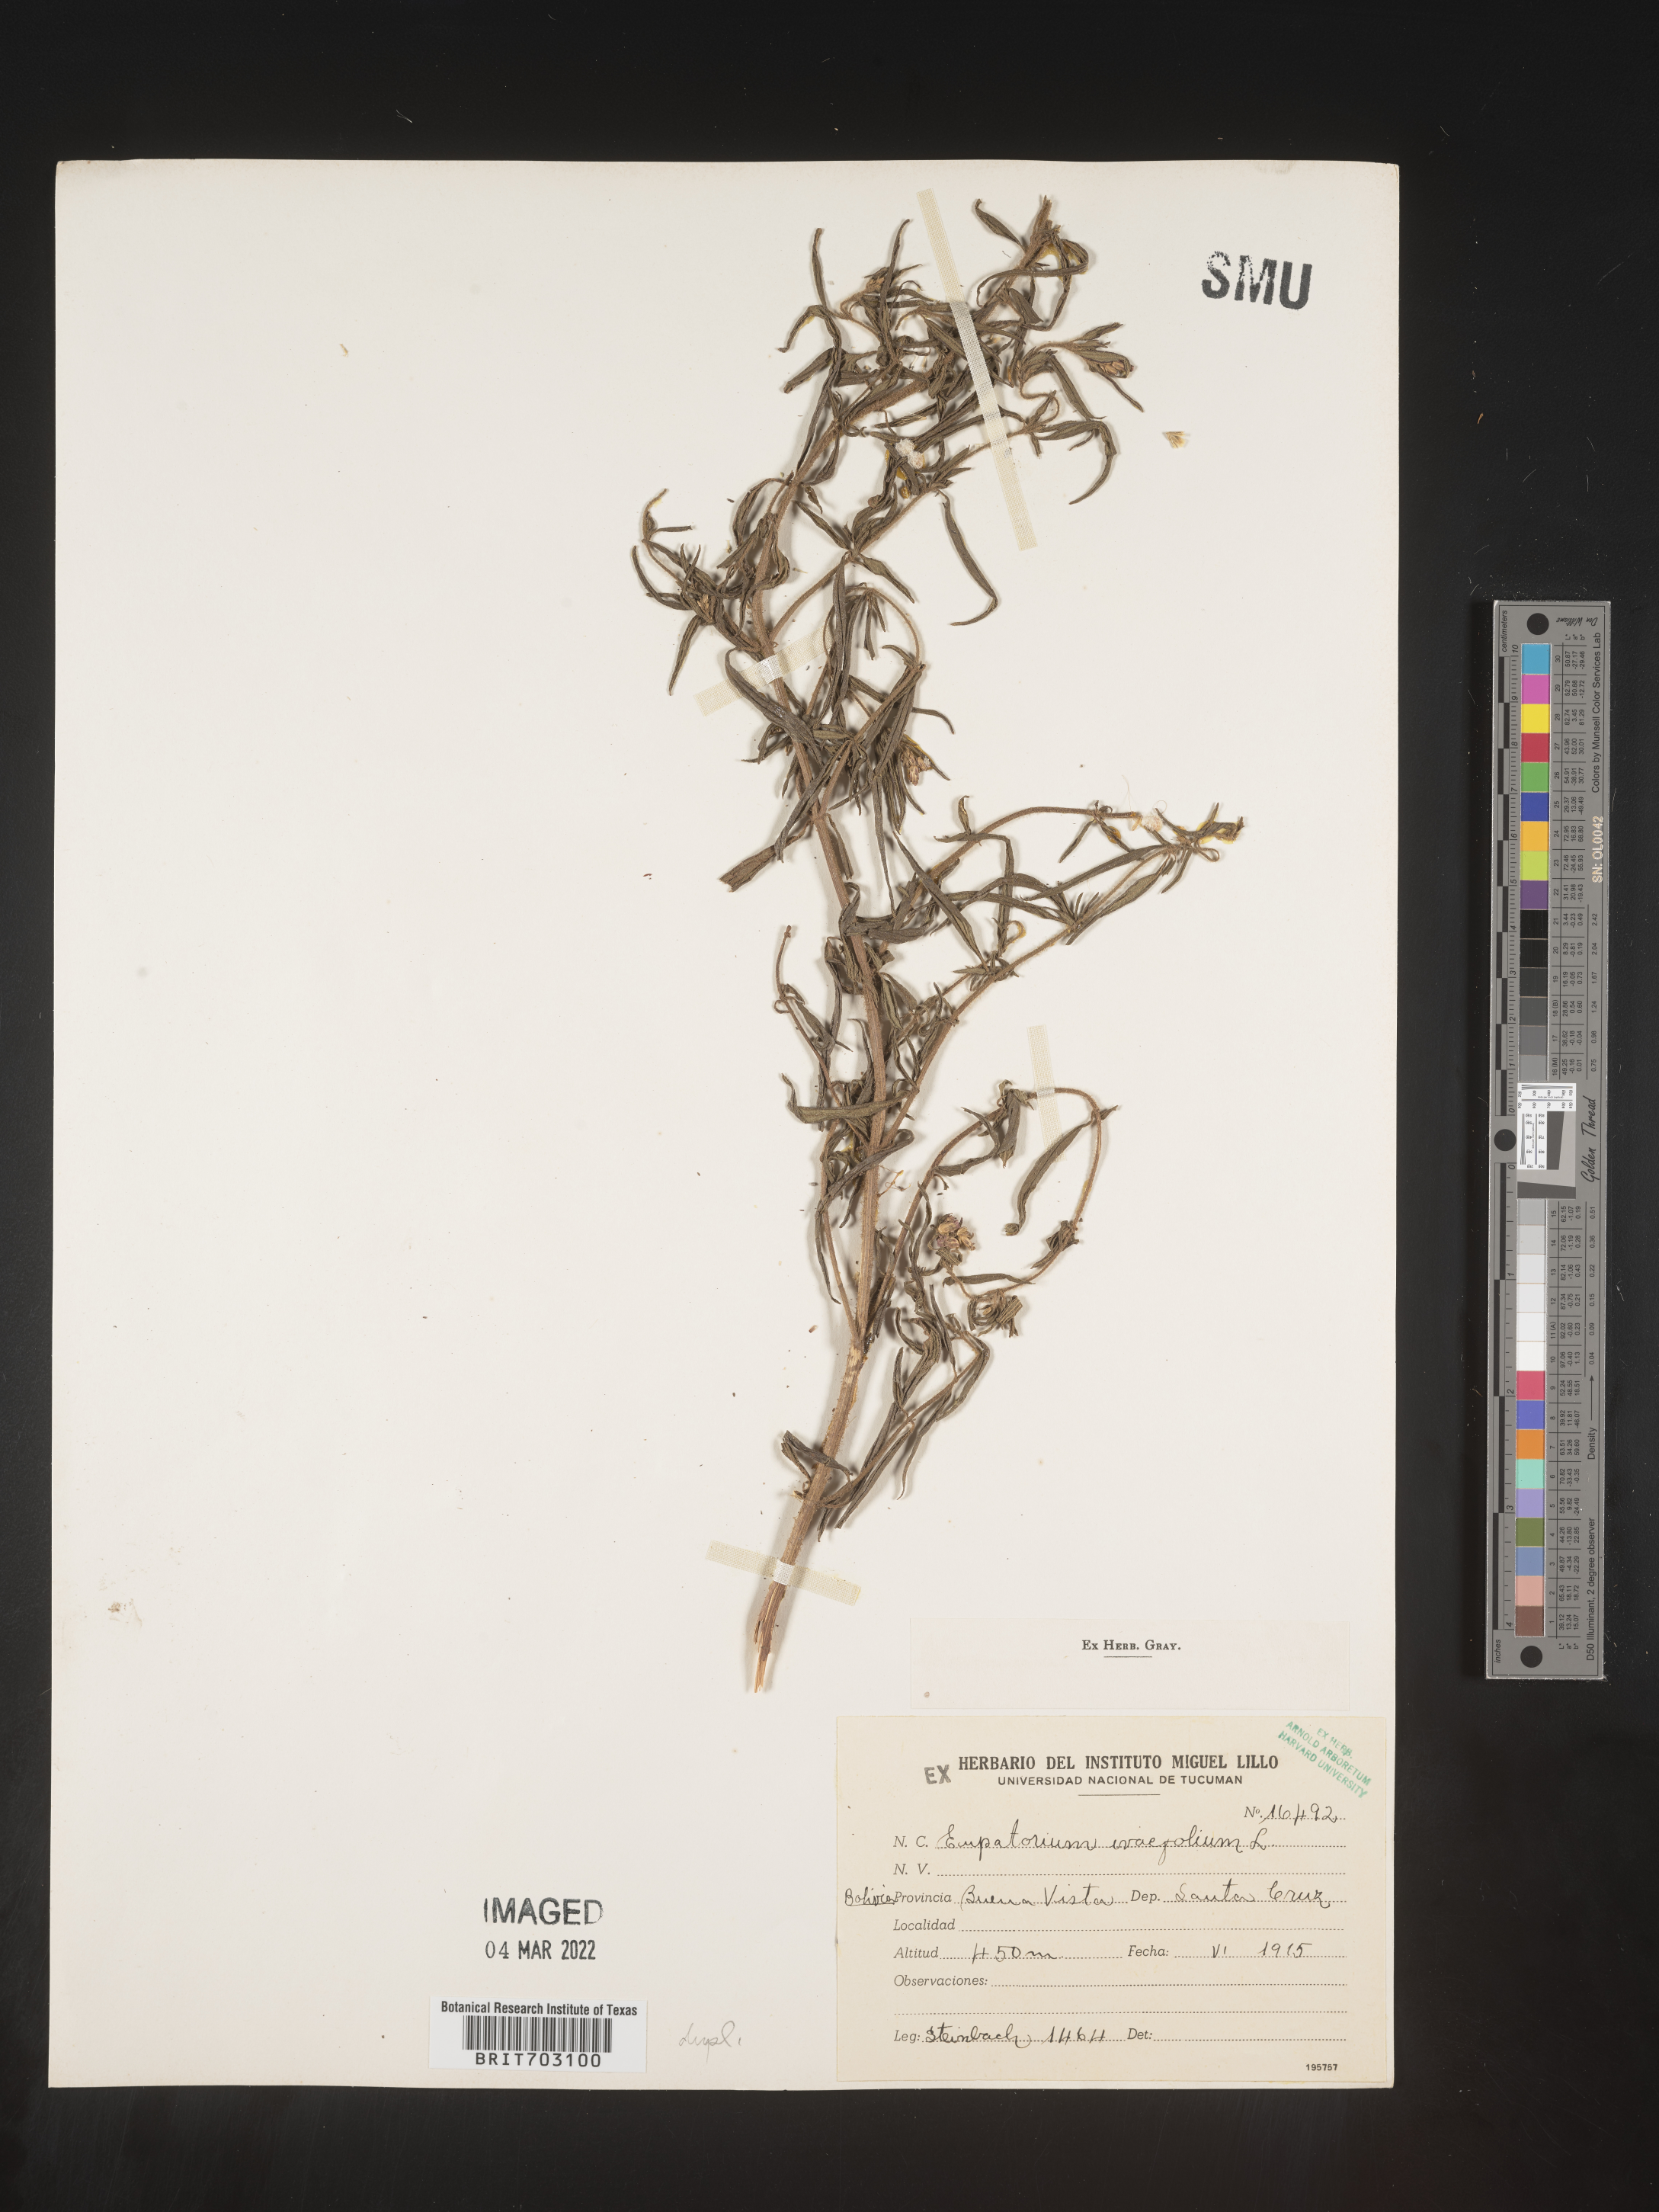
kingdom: Plantae
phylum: Tracheophyta
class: Magnoliopsida
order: Asterales
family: Asteraceae
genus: Eupatorium
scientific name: Eupatorium
